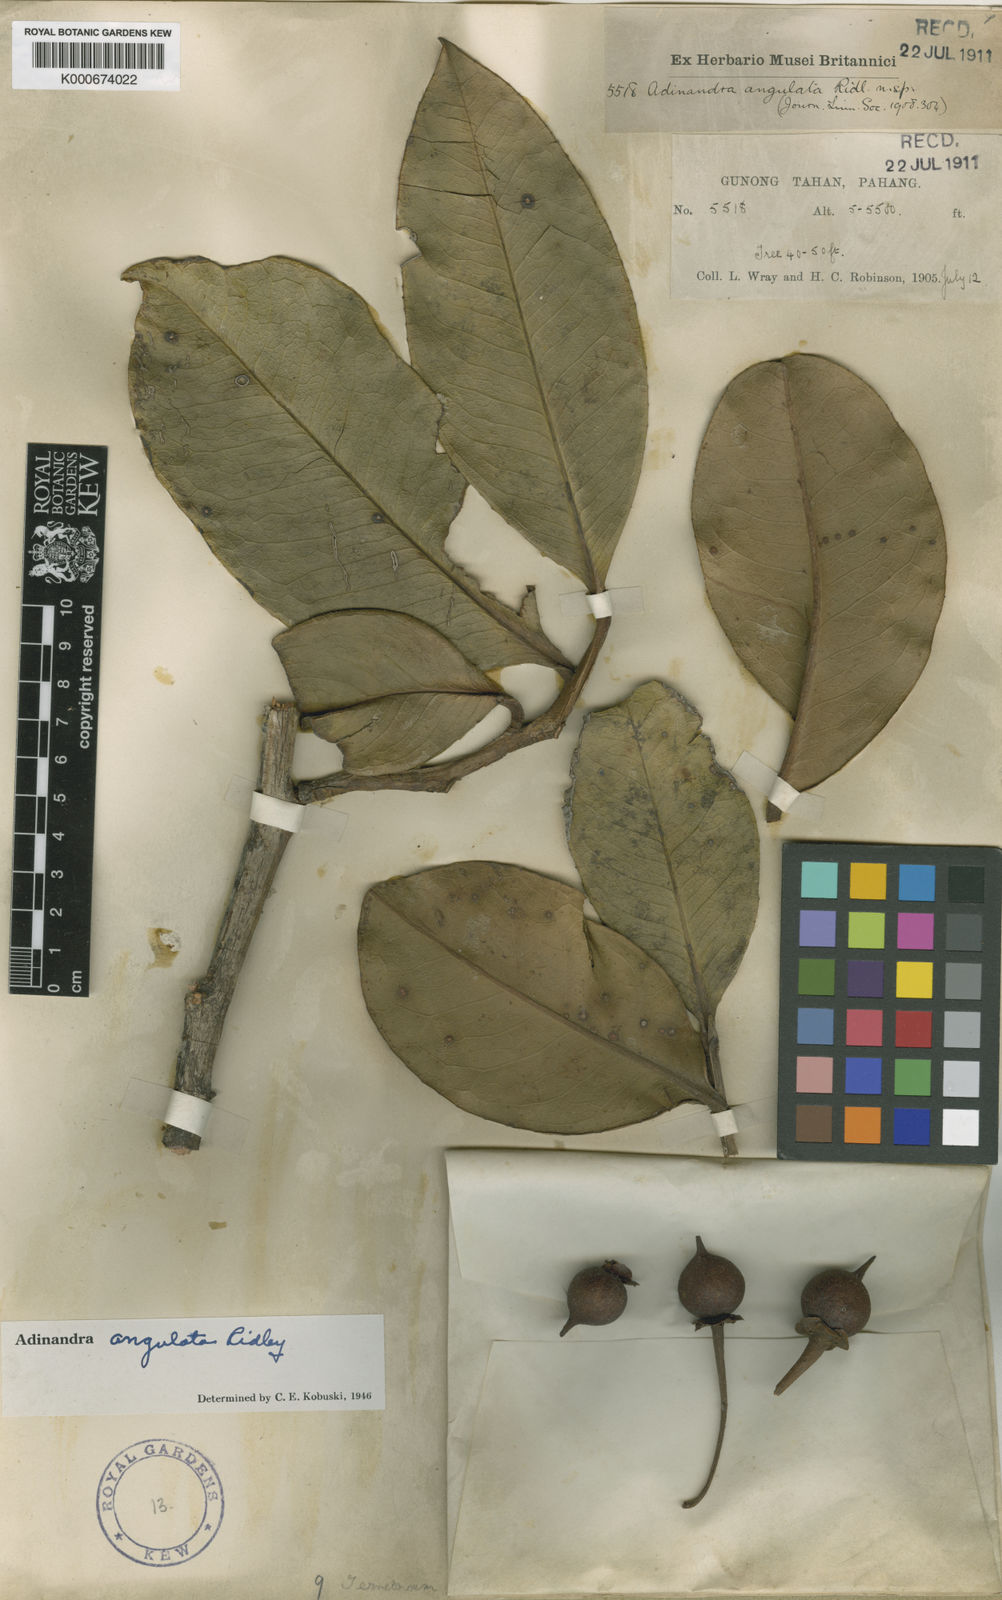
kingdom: Plantae
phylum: Tracheophyta
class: Magnoliopsida
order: Ericales
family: Pentaphylacaceae
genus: Adinandra
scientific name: Adinandra angulata
